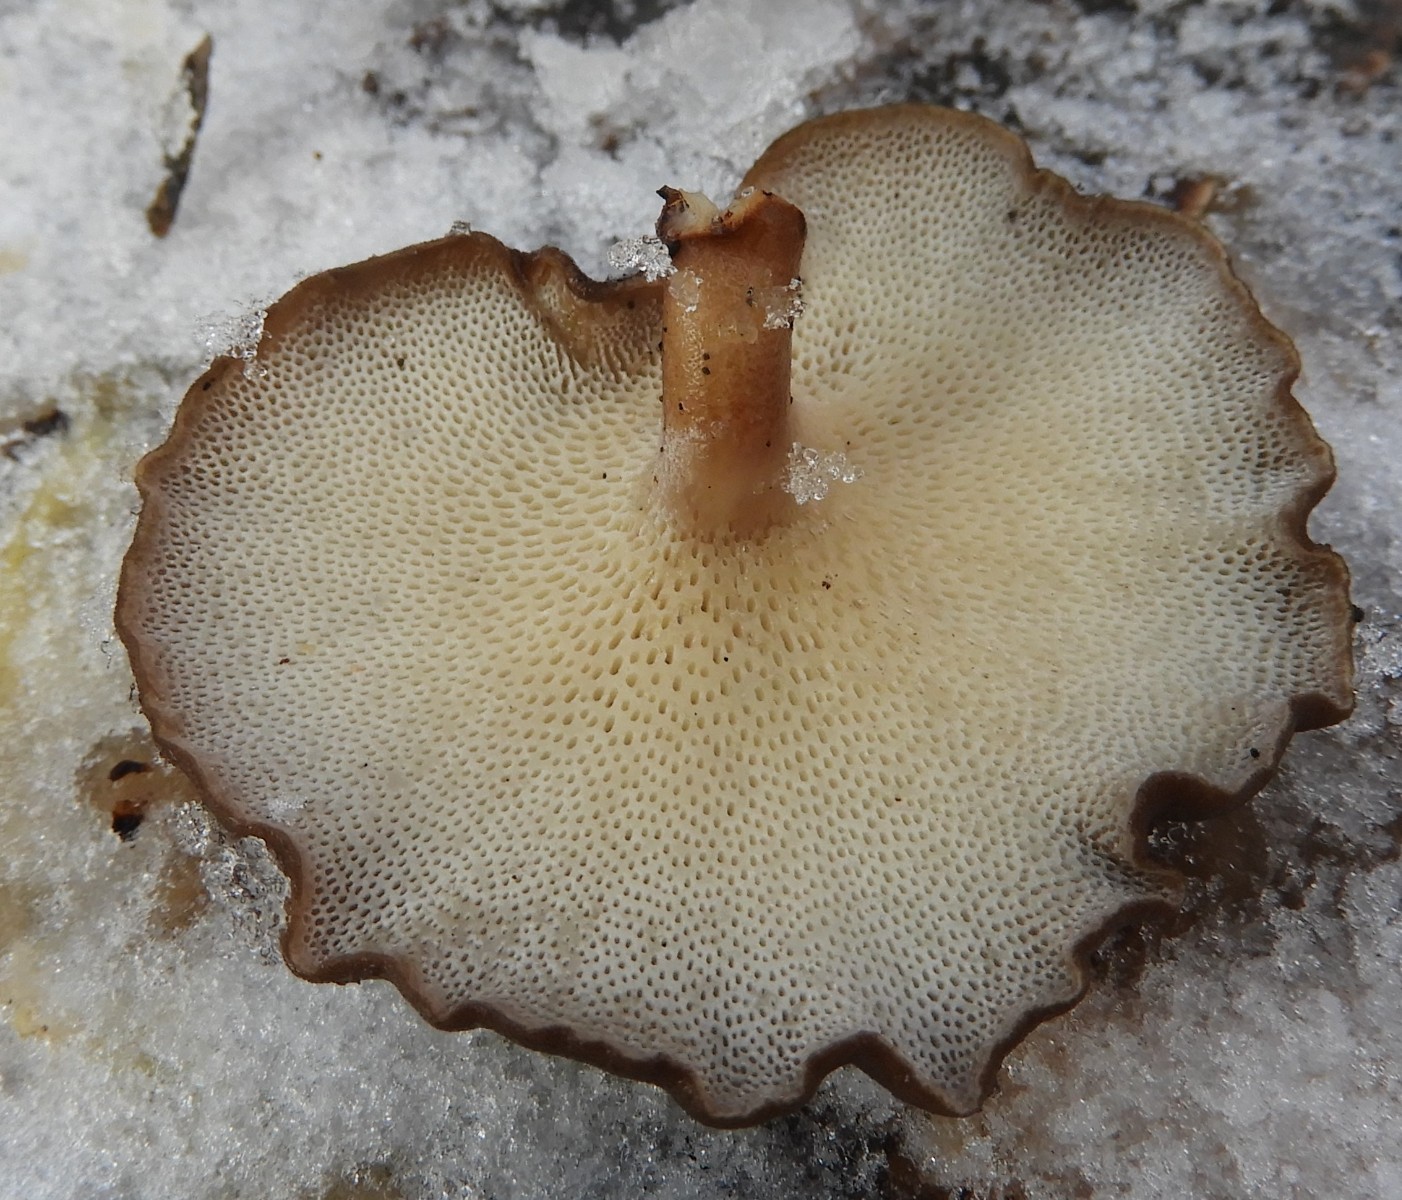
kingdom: Fungi
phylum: Basidiomycota
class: Agaricomycetes
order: Polyporales
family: Polyporaceae
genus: Lentinus
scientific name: Lentinus brumalis
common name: vinter-stilkporesvamp
